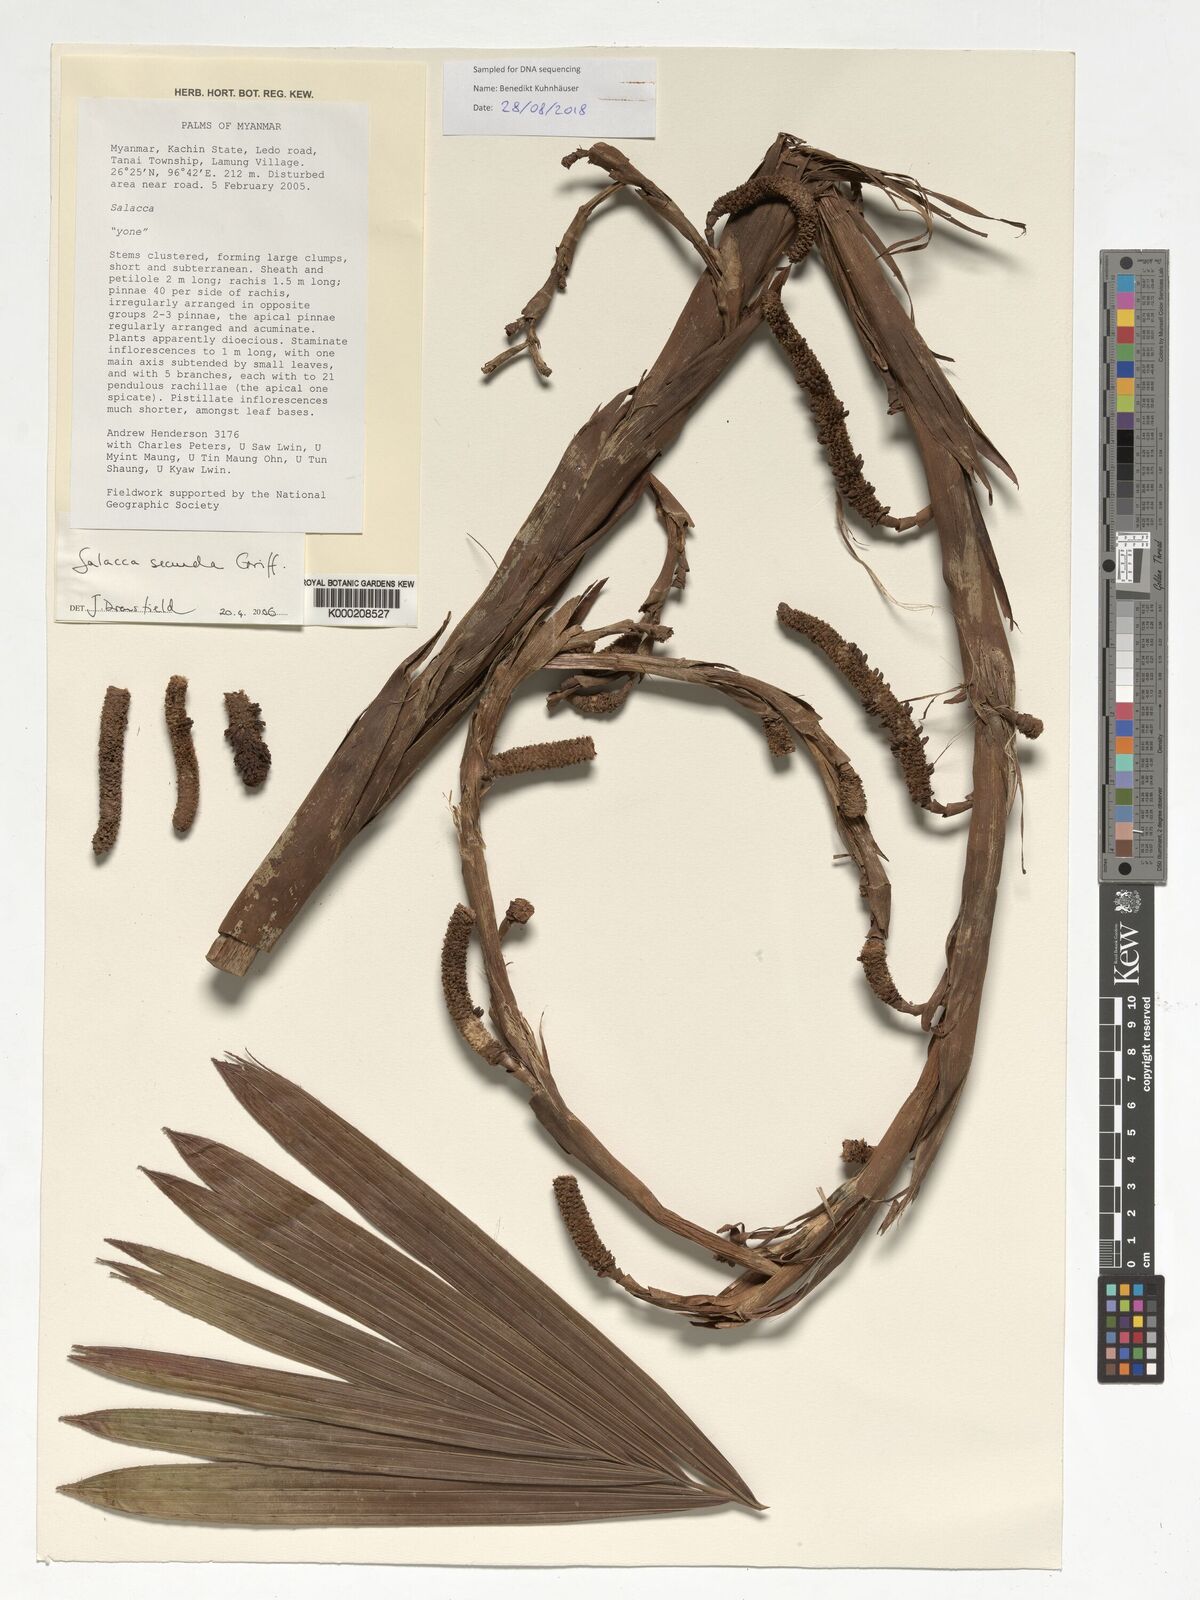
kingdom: Plantae
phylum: Tracheophyta
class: Liliopsida
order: Arecales
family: Arecaceae
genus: Salacca
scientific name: Salacca secunda
